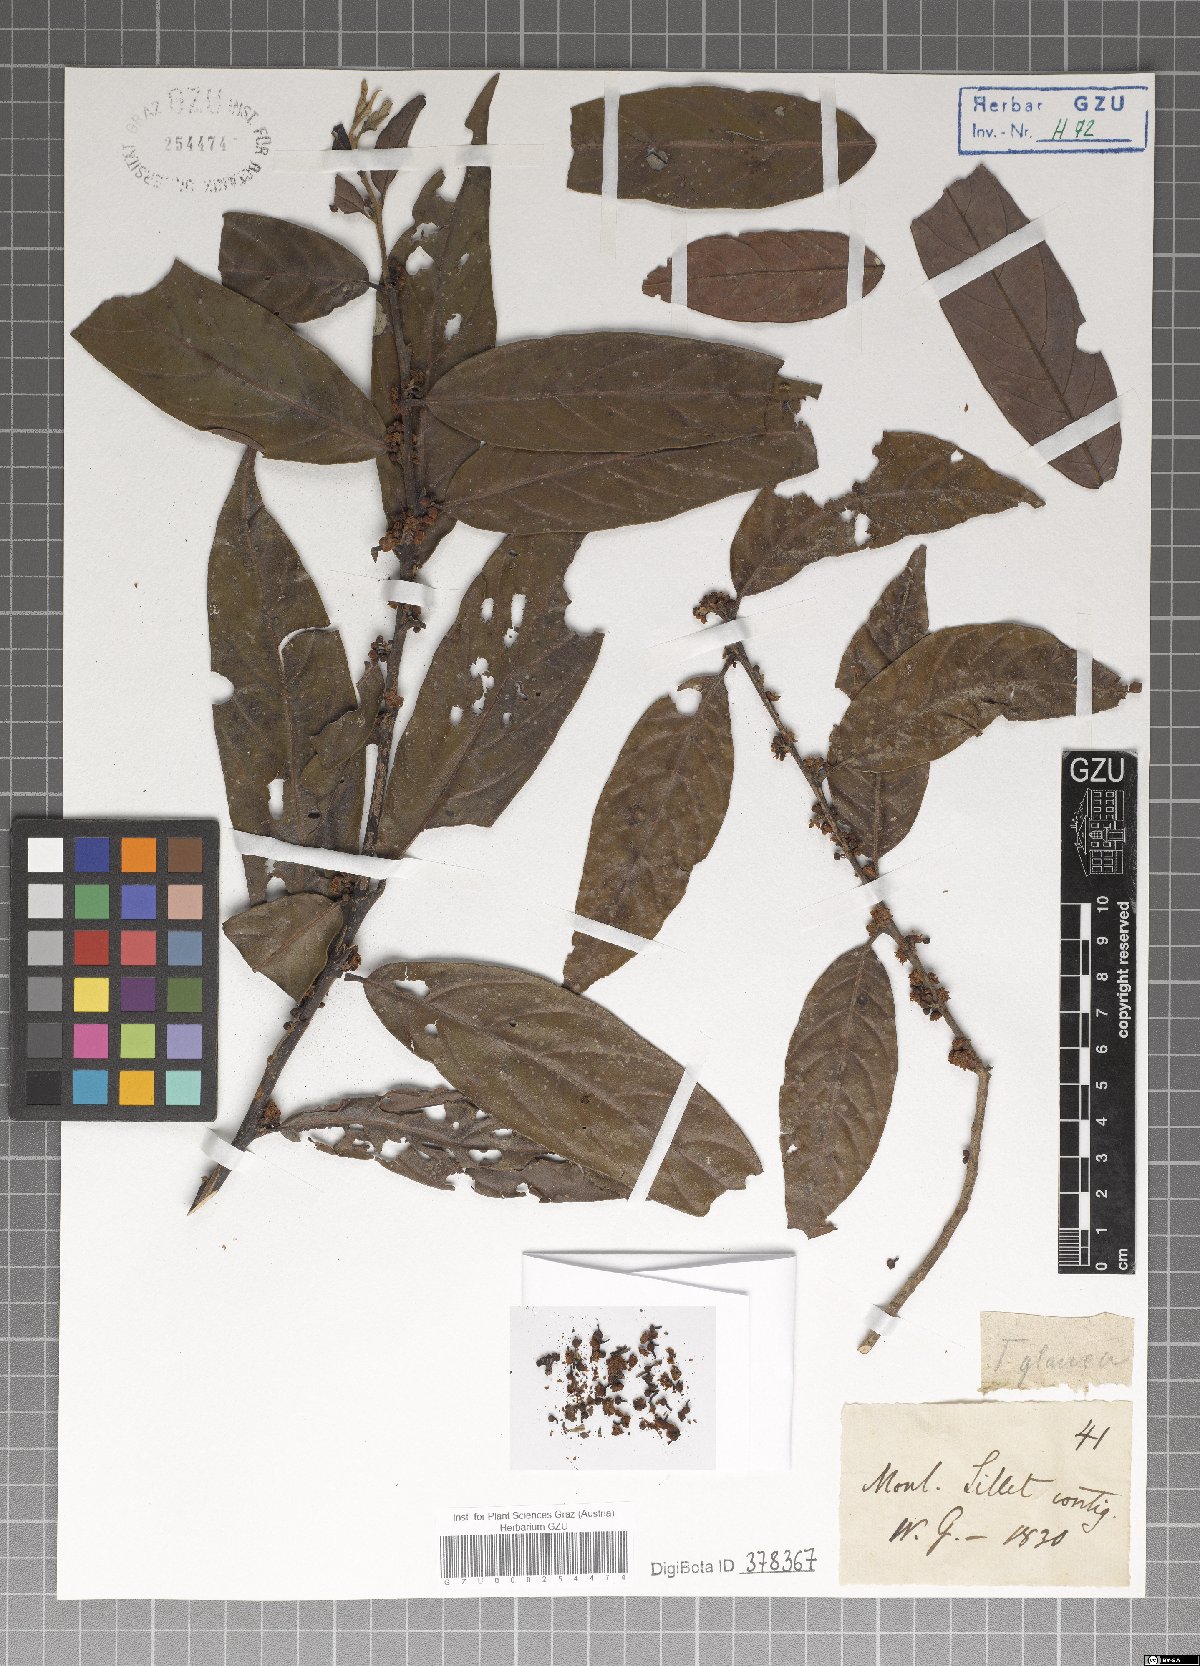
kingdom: Plantae
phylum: Tracheophyta
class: Magnoliopsida
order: Laurales
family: Lauraceae
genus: Litsea
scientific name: Litsea salicifolia
